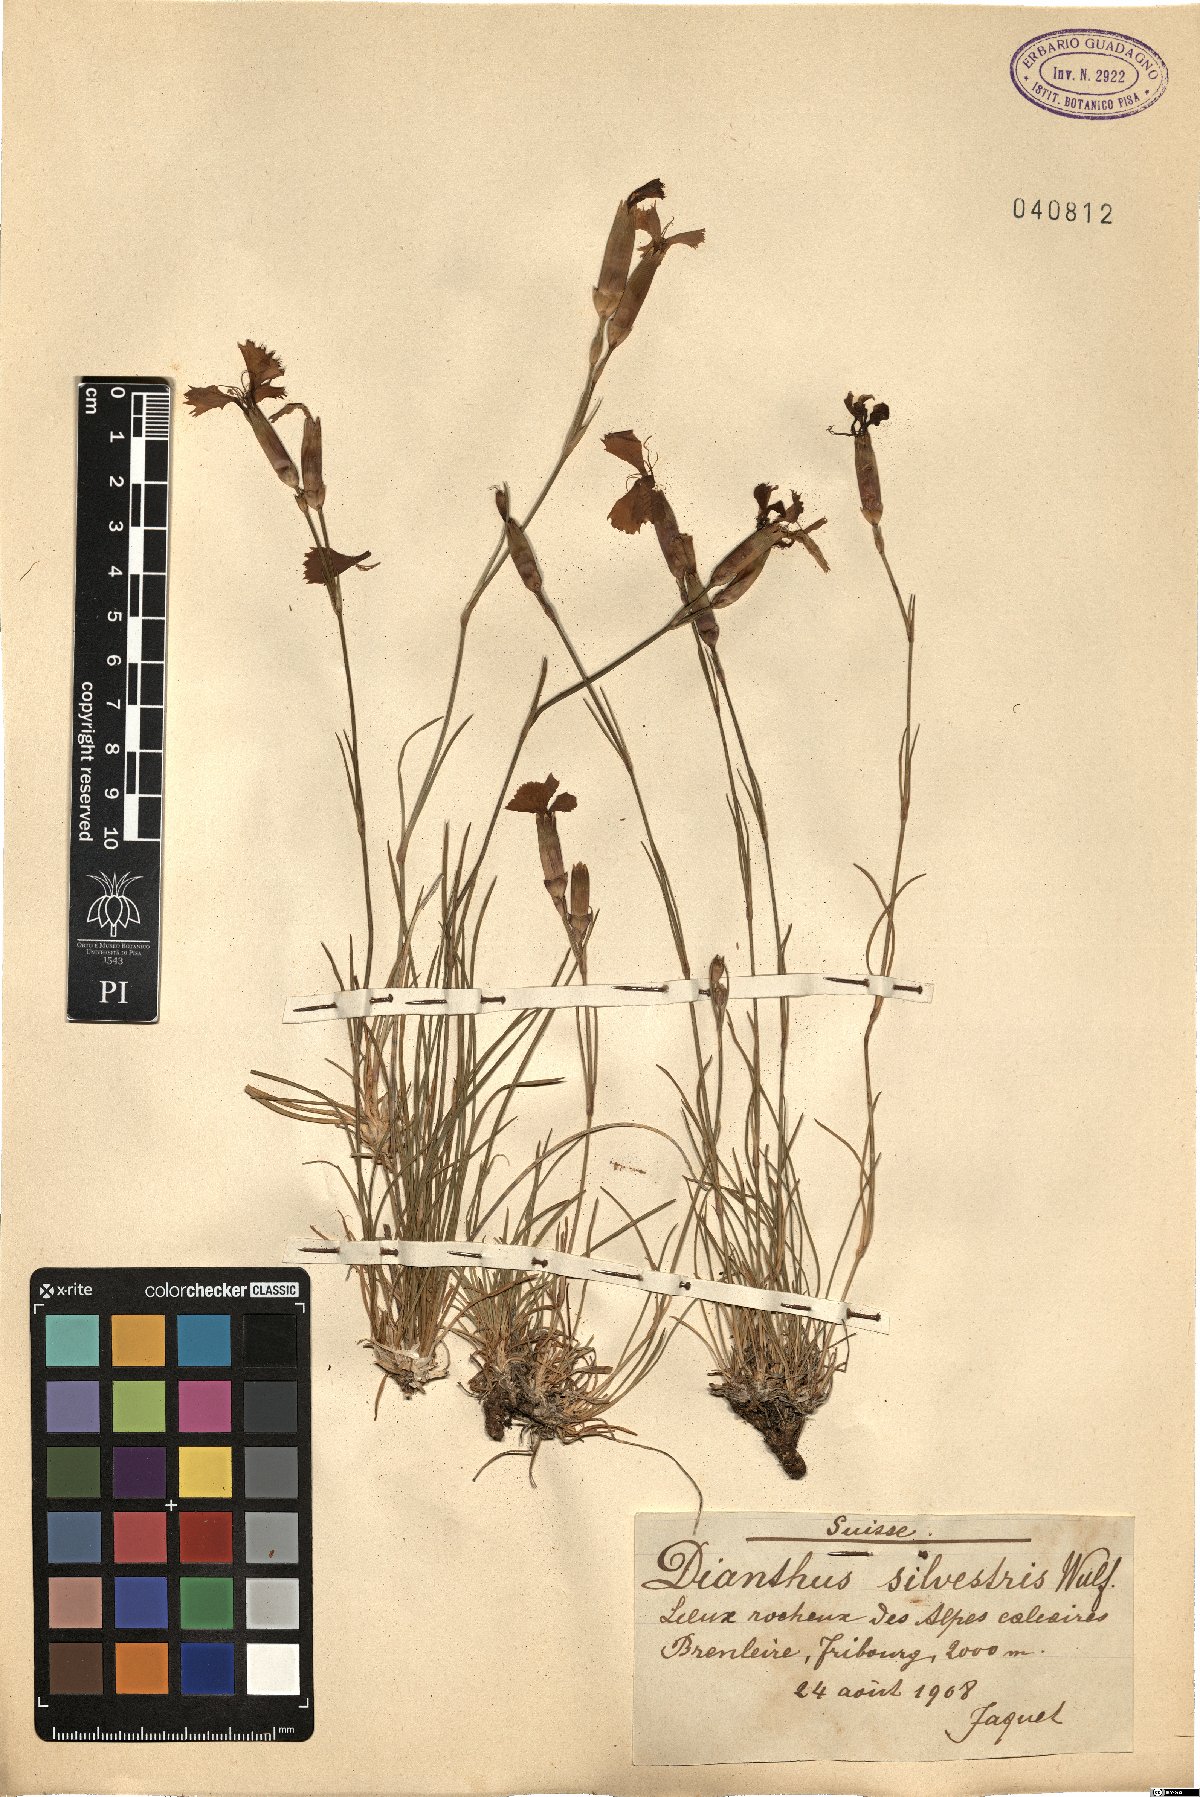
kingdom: Plantae
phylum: Tracheophyta
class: Magnoliopsida
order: Caryophyllales
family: Caryophyllaceae
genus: Dianthus
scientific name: Dianthus sylvestris
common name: Wood pink
